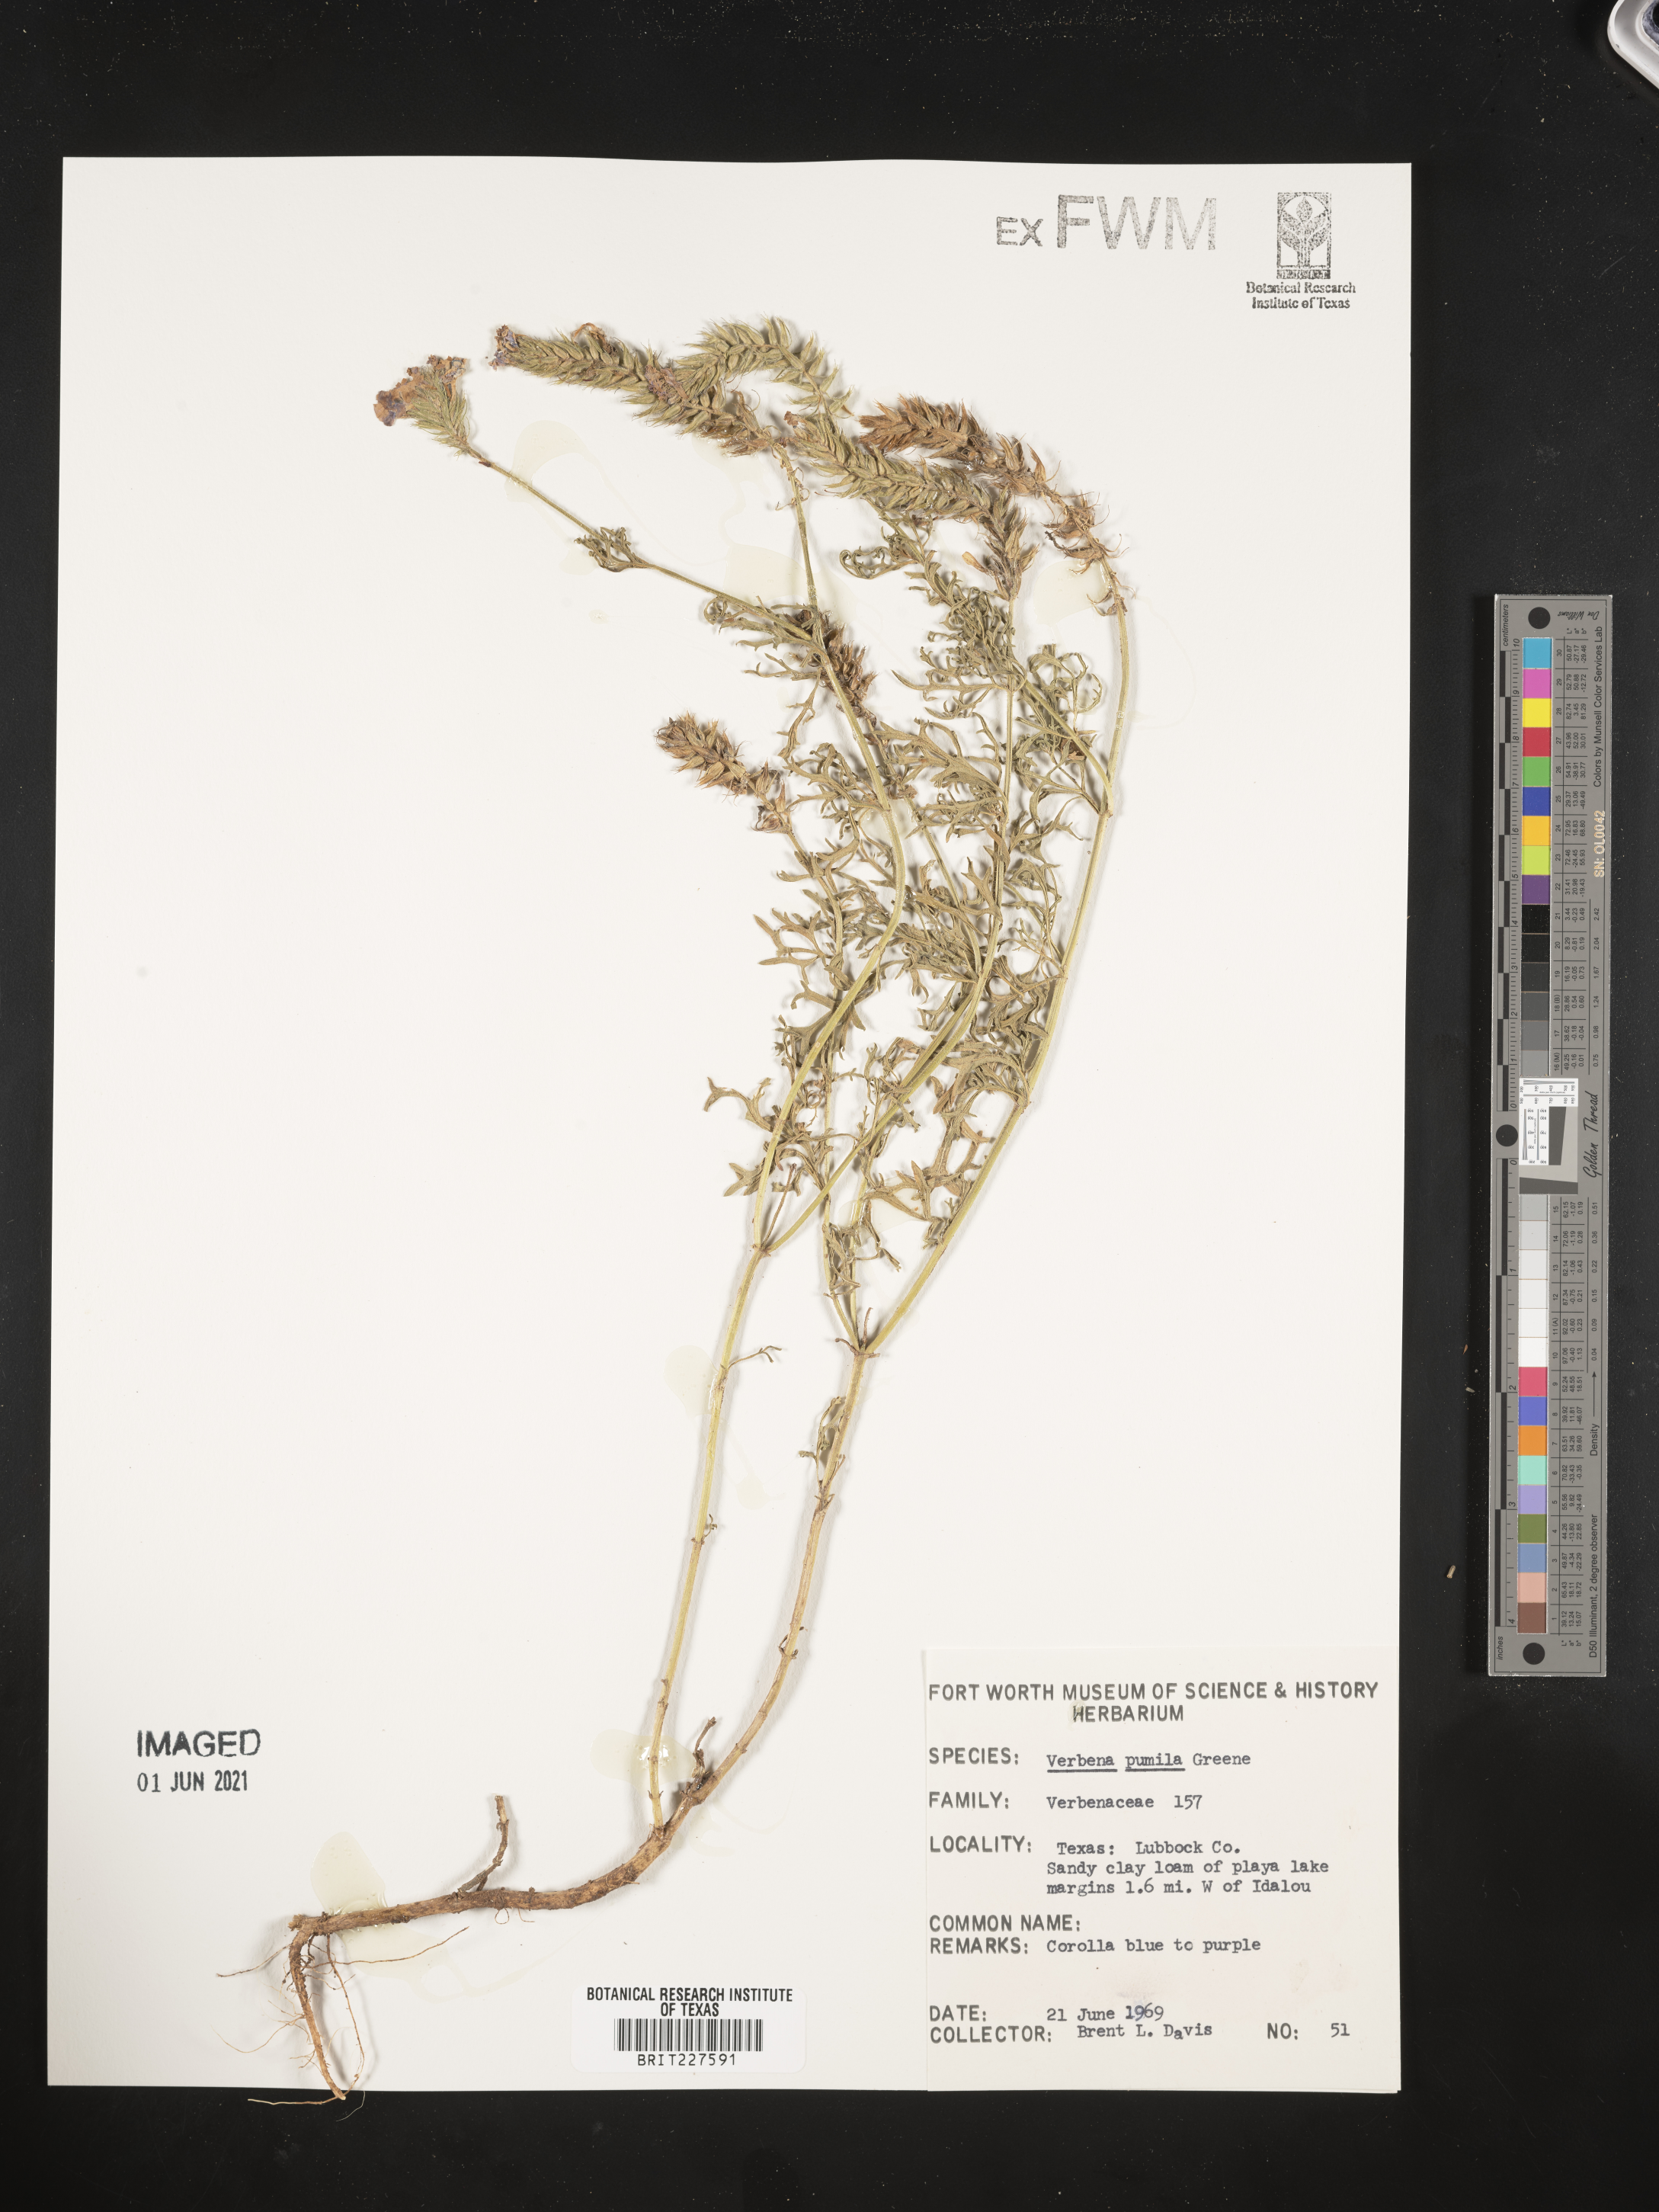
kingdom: Plantae
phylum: Tracheophyta
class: Magnoliopsida
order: Lamiales
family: Verbenaceae
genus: Verbena
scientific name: Verbena pumila
